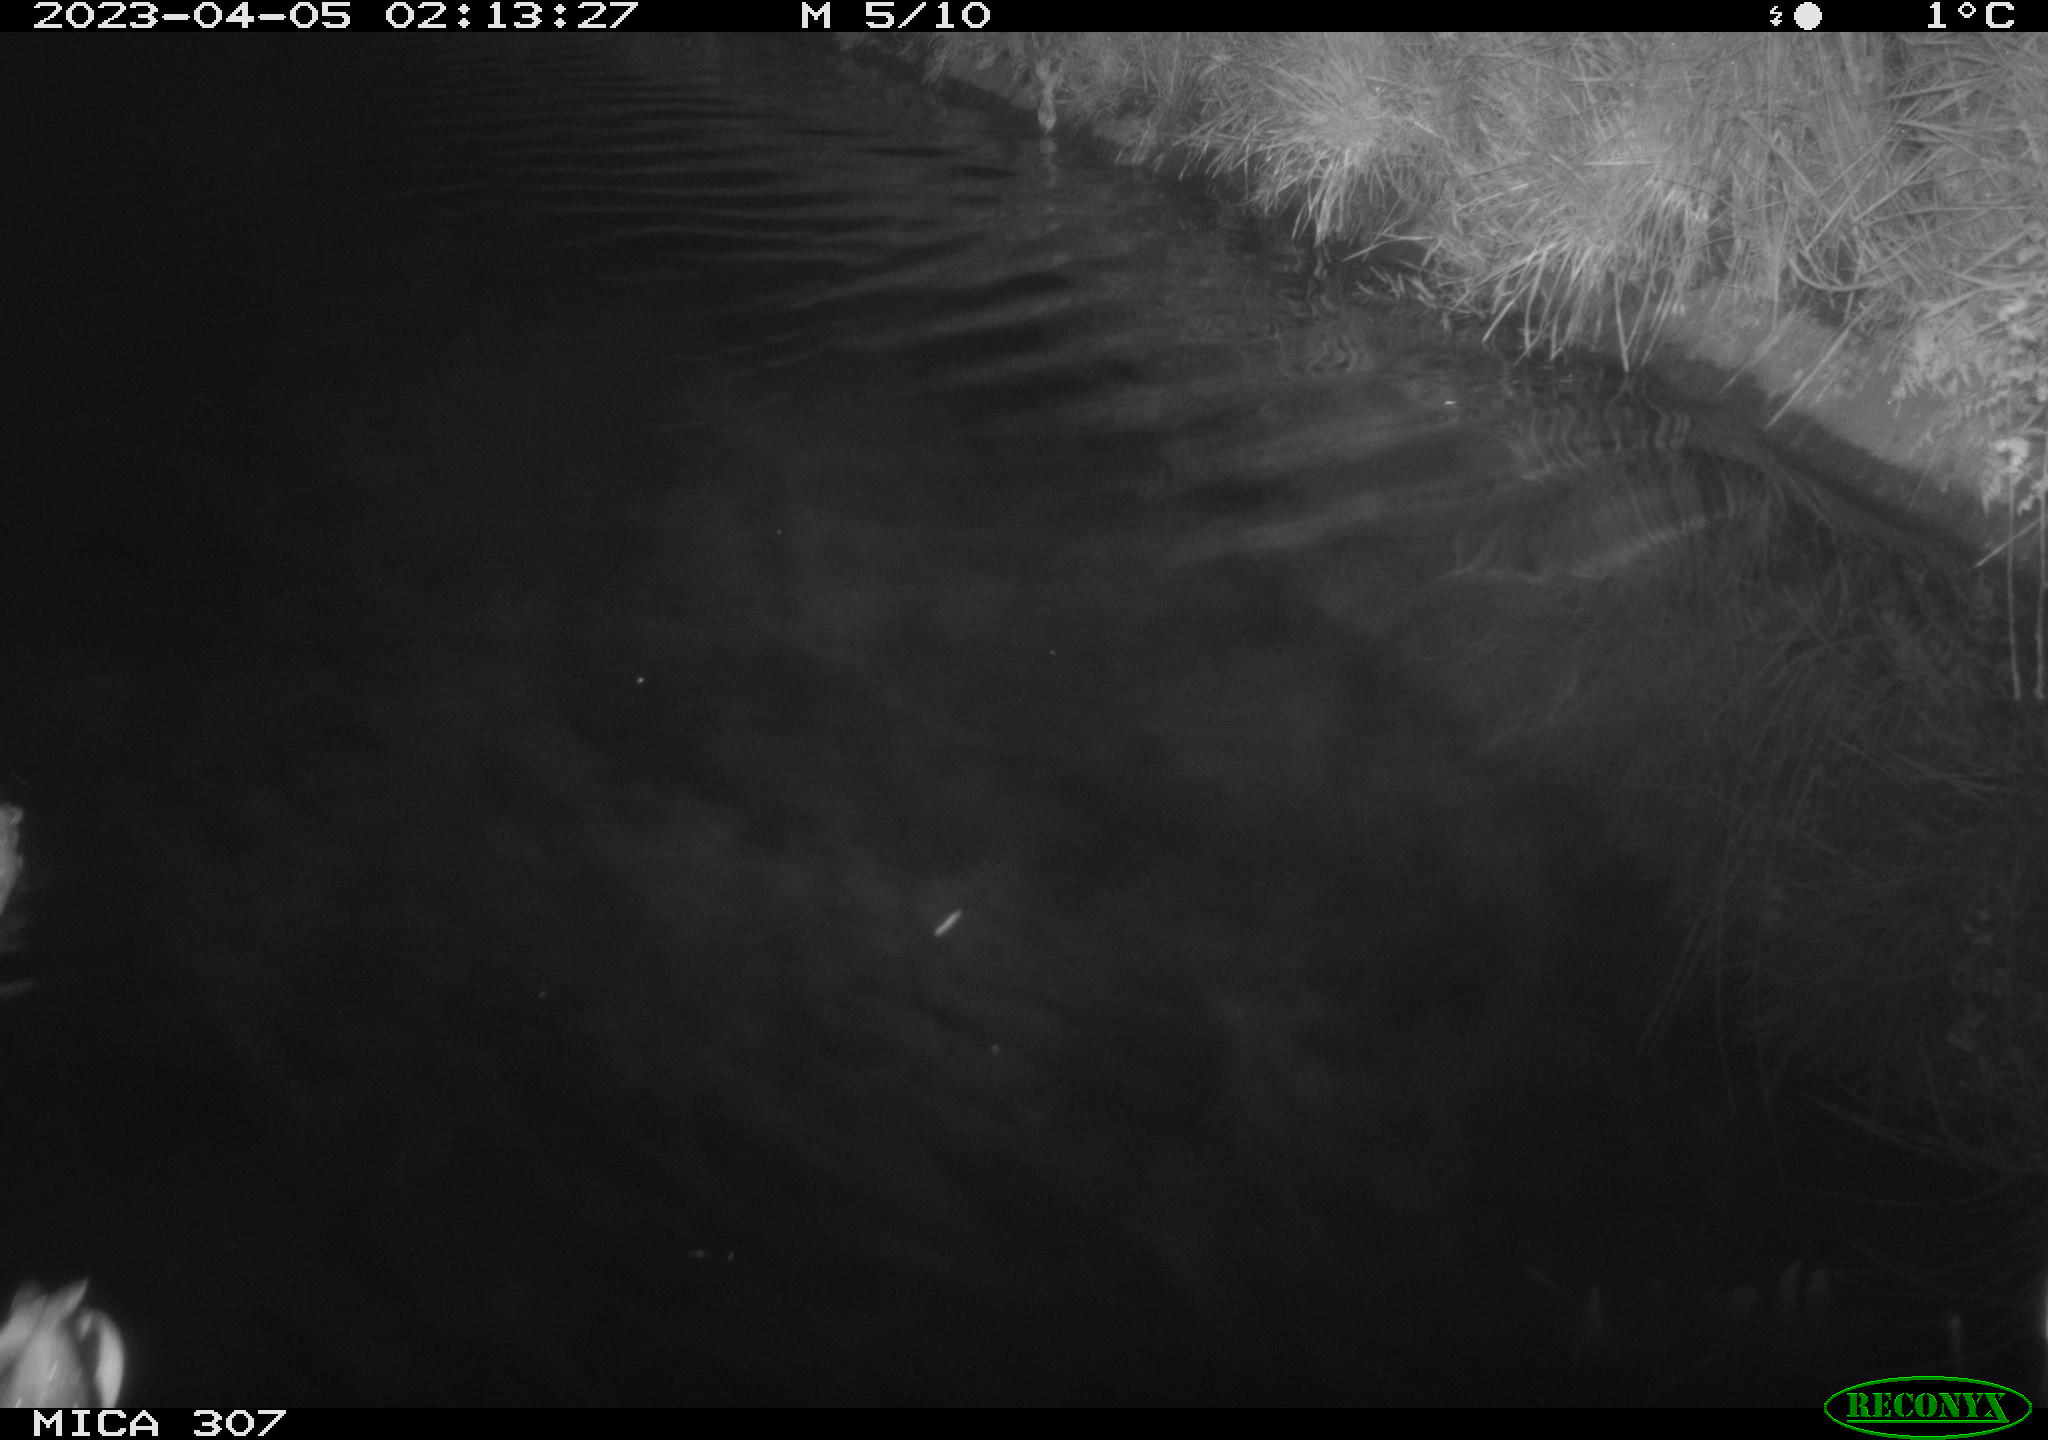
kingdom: Animalia
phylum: Chordata
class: Aves
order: Anseriformes
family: Anatidae
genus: Anas
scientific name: Anas
